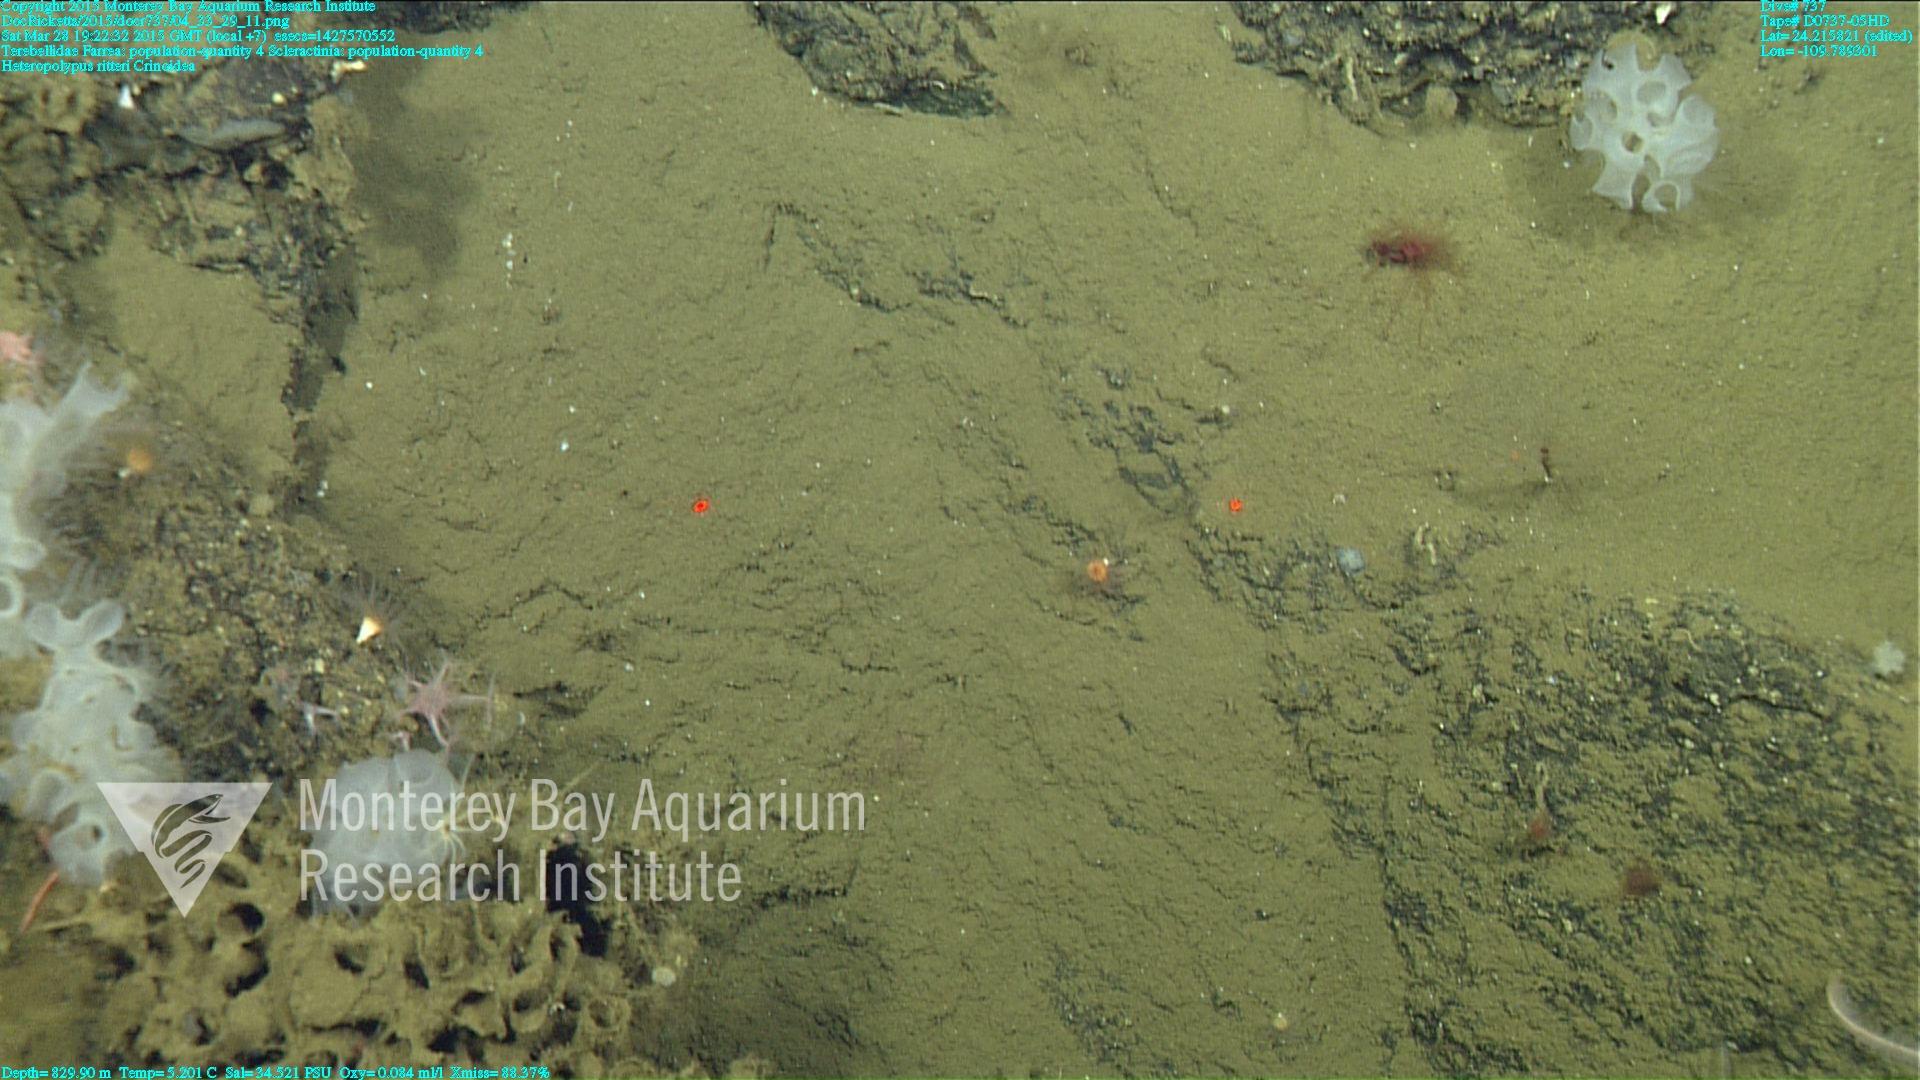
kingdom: Animalia
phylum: Cnidaria
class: Anthozoa
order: Scleractinia
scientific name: Scleractinia
